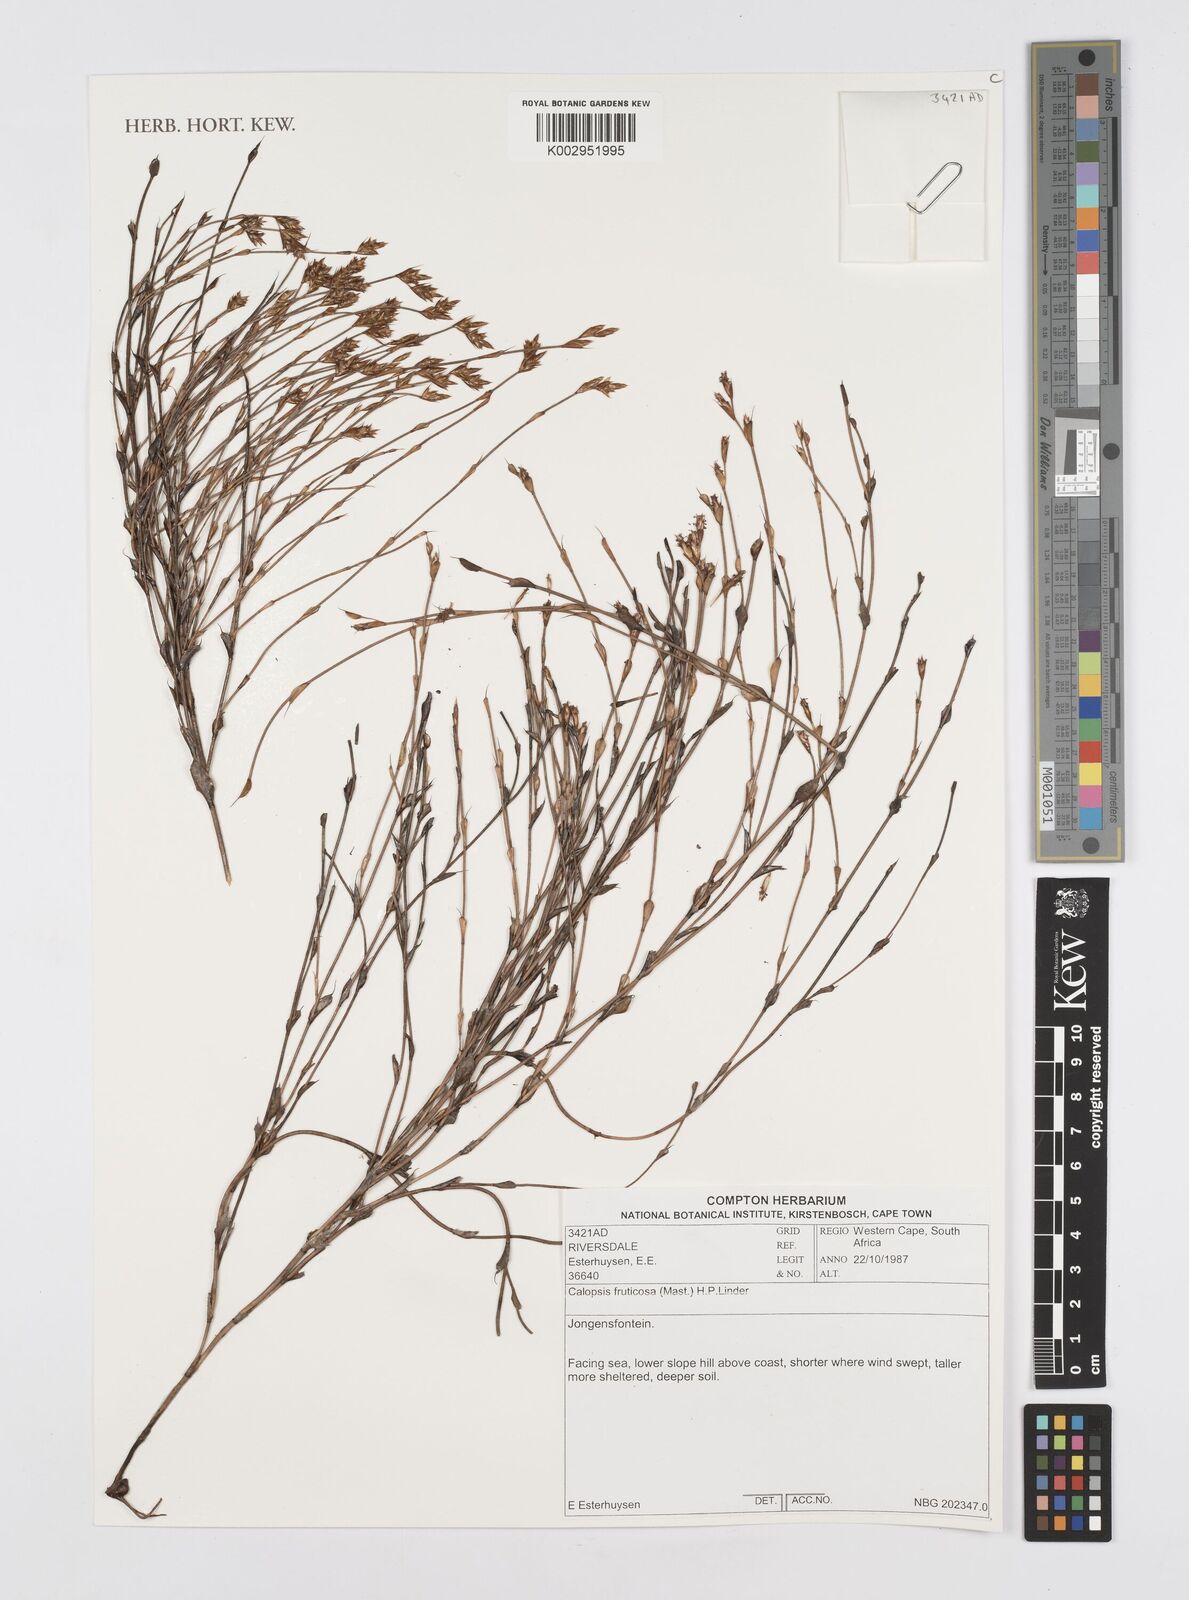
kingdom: Plantae
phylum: Tracheophyta
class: Liliopsida
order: Poales
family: Restionaceae
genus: Rhodocoma
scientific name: Rhodocoma fruticosa
